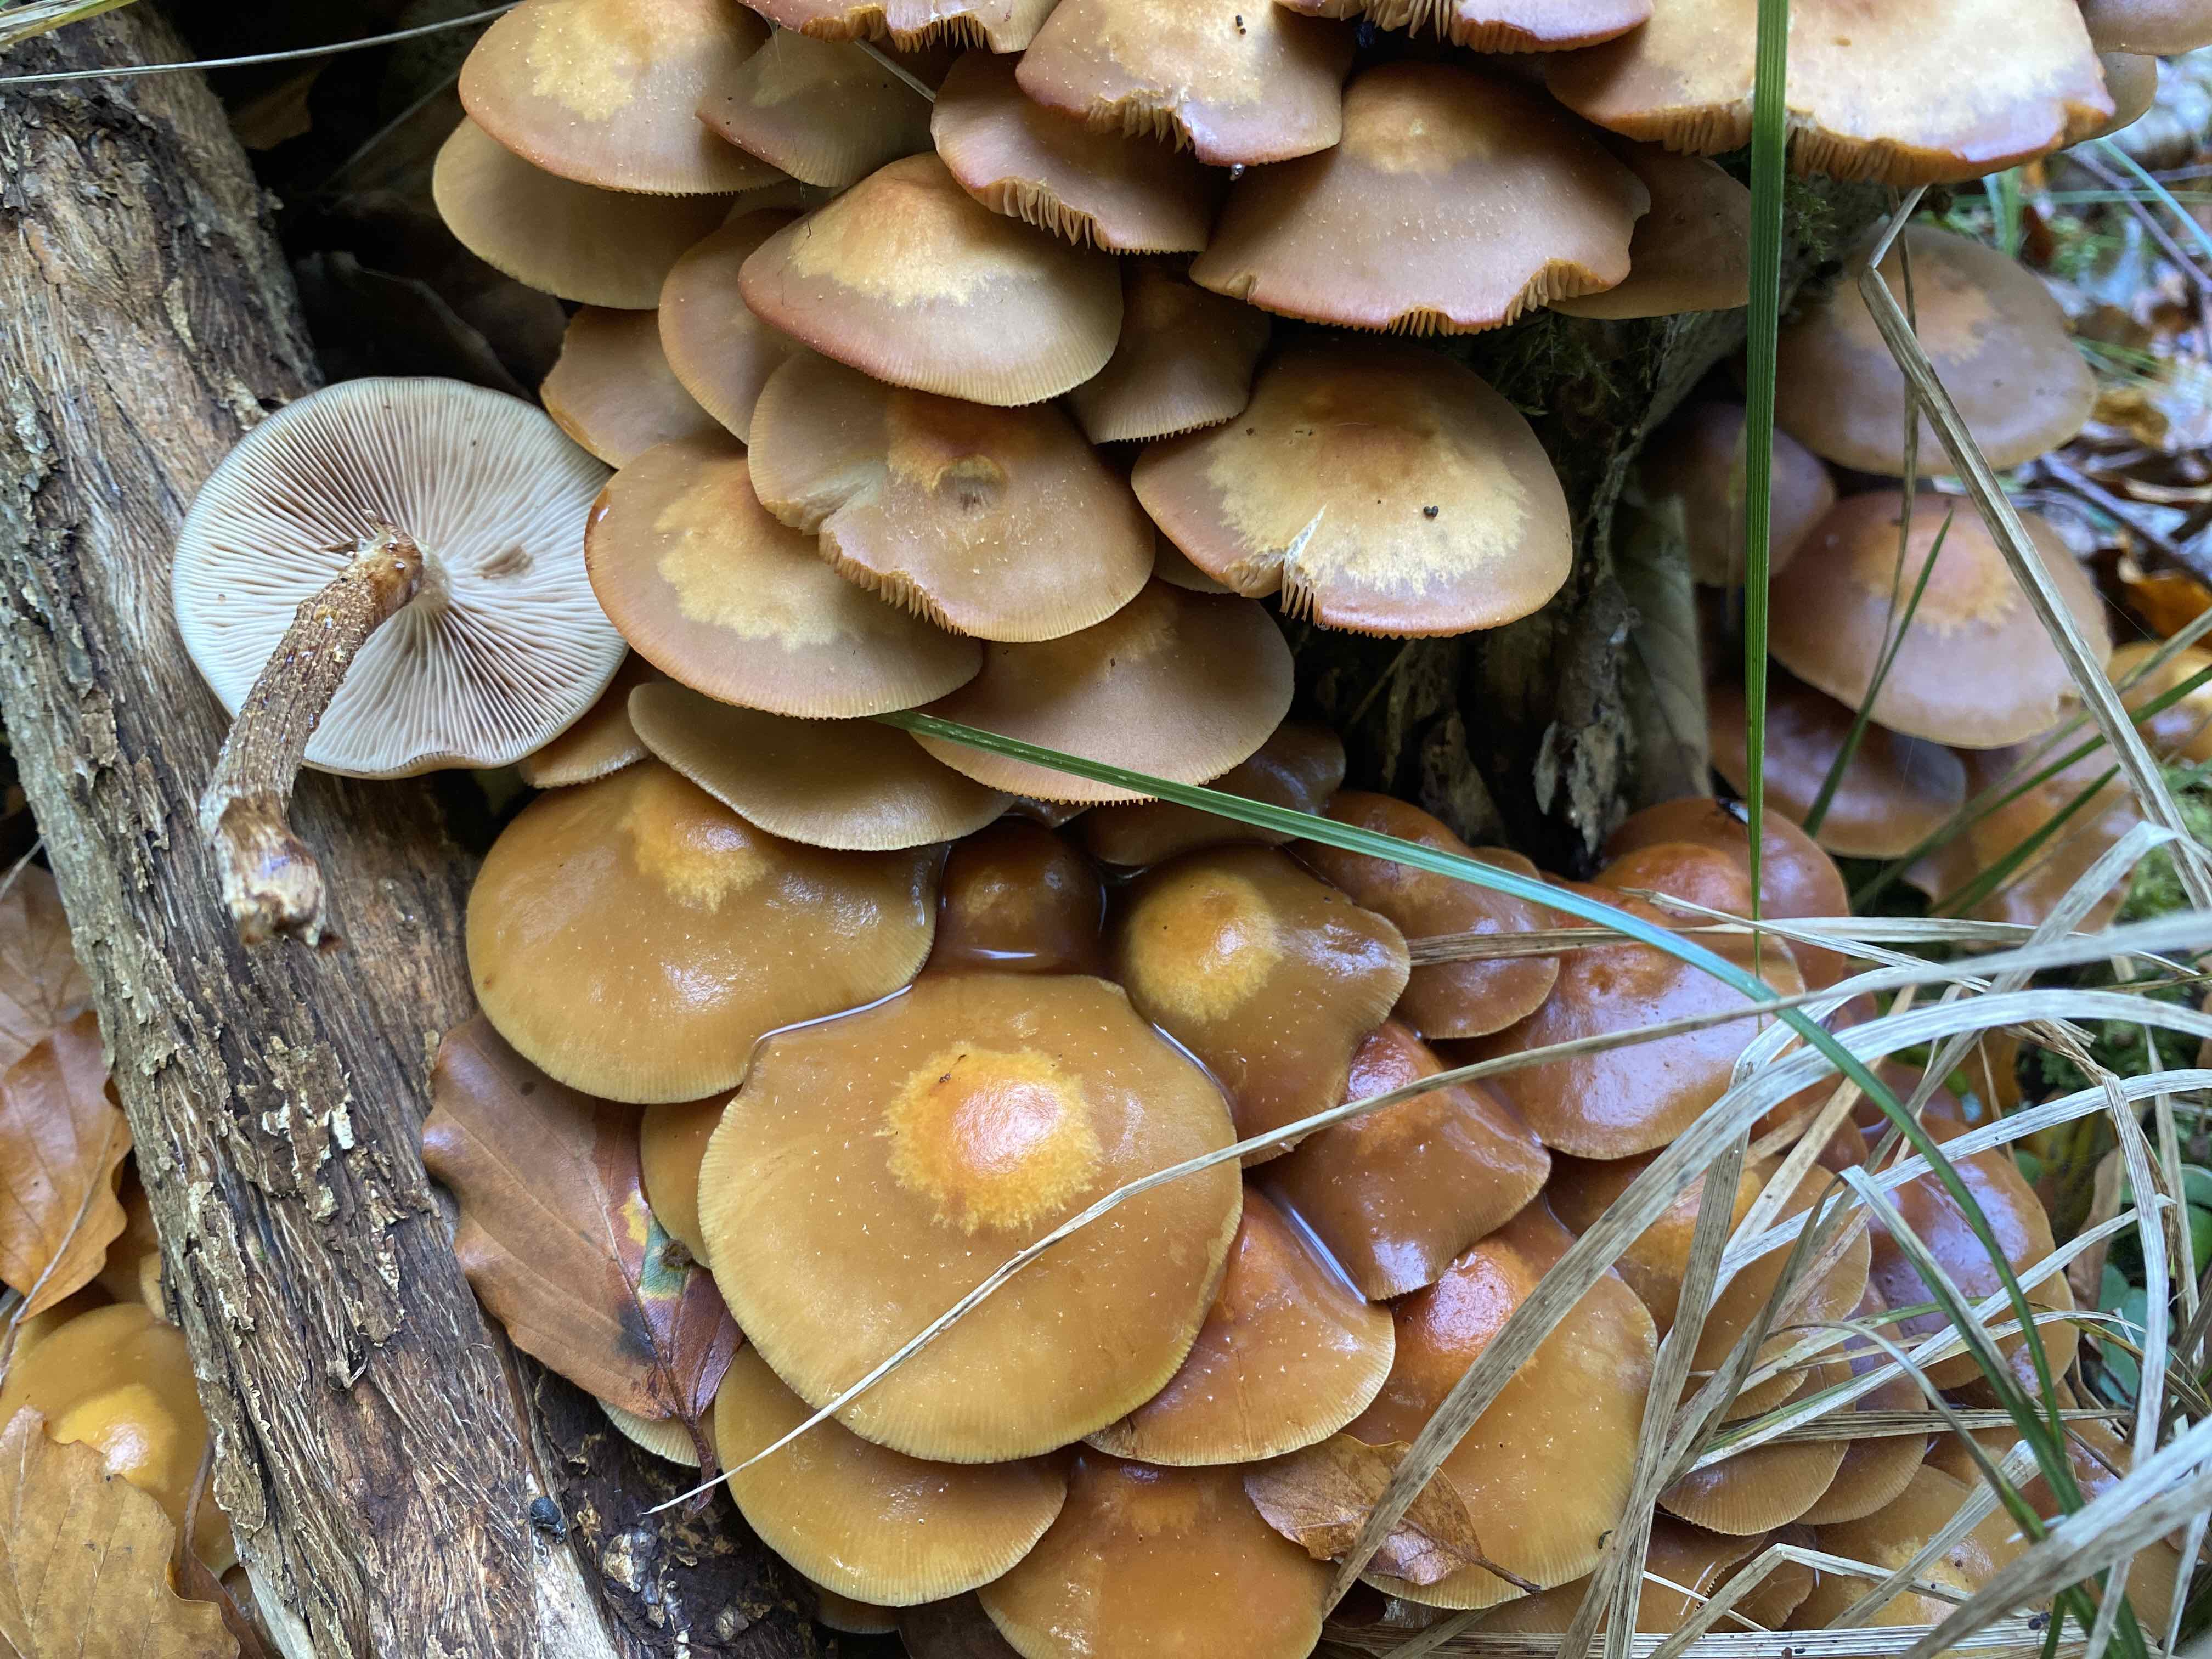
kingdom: Fungi
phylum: Basidiomycota
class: Agaricomycetes
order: Agaricales
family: Strophariaceae
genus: Kuehneromyces
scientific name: Kuehneromyces mutabilis
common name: foranderlig skælhat
